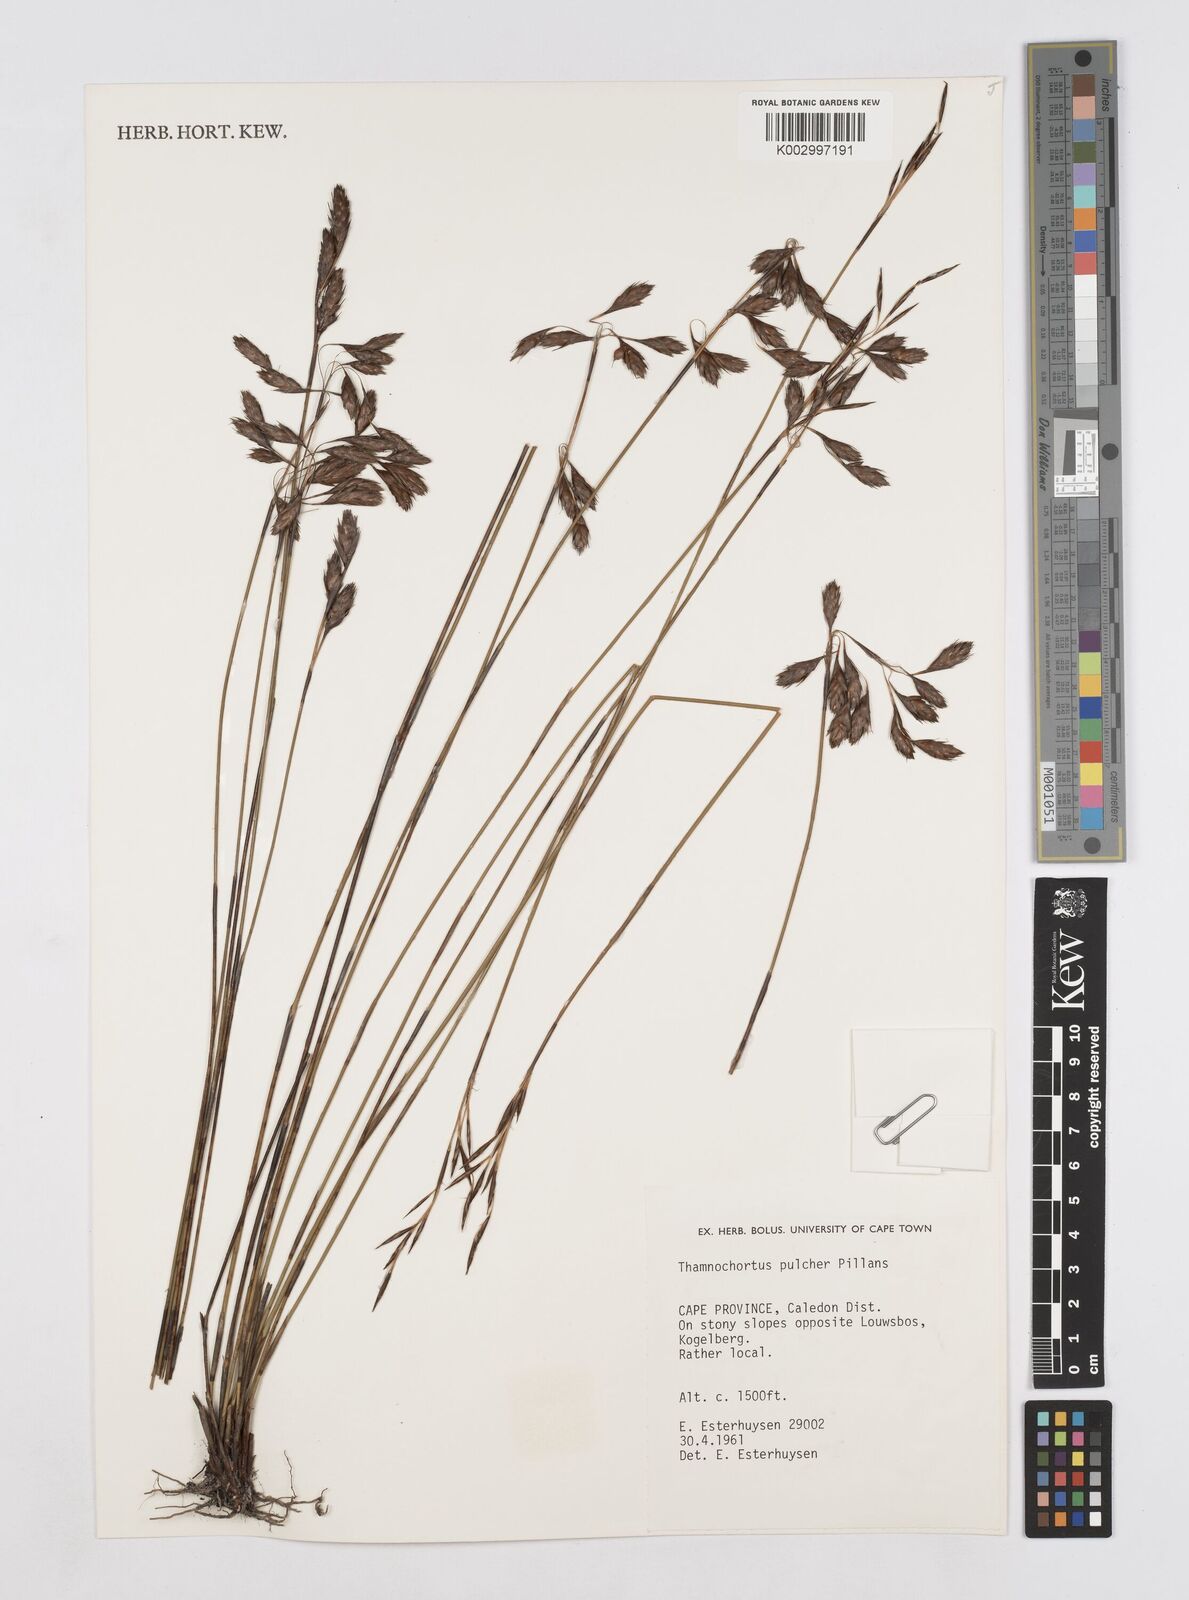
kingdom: Plantae
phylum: Tracheophyta
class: Liliopsida
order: Poales
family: Restionaceae
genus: Thamnochortus
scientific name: Thamnochortus pulcher
